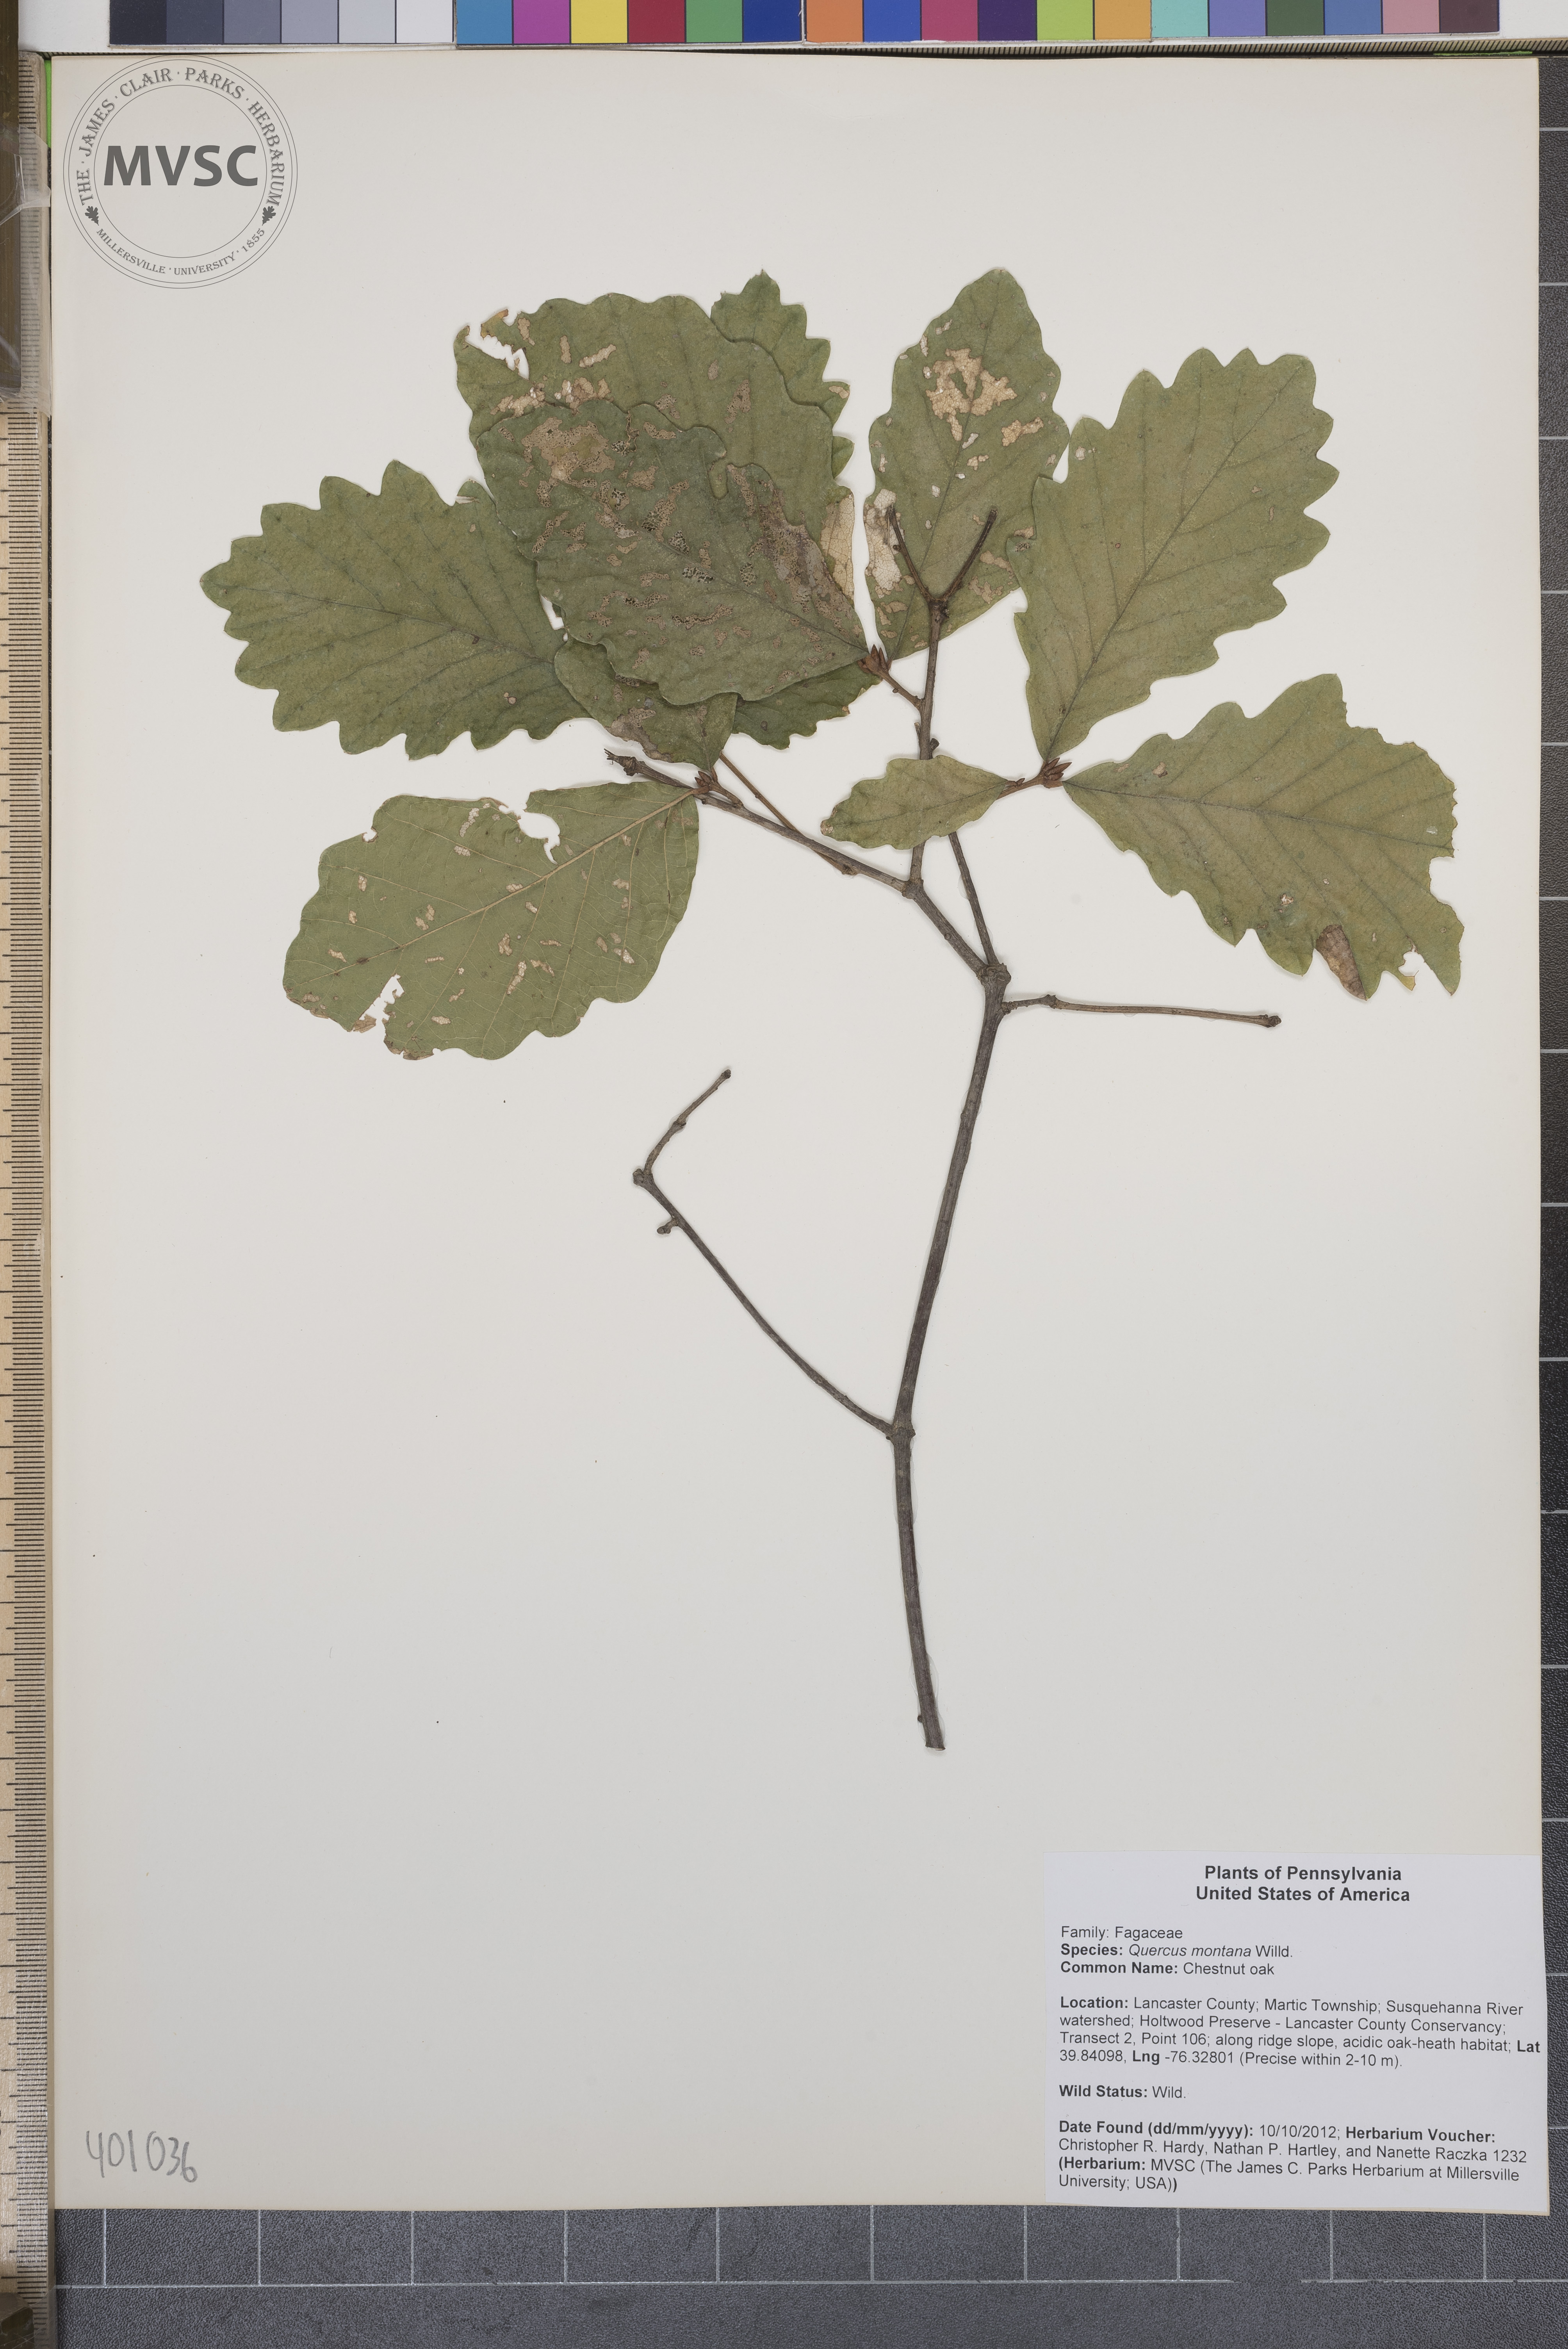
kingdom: Plantae
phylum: Tracheophyta
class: Magnoliopsida
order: Fagales
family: Fagaceae
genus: Quercus
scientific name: Quercus montana
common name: Chestnut oak
